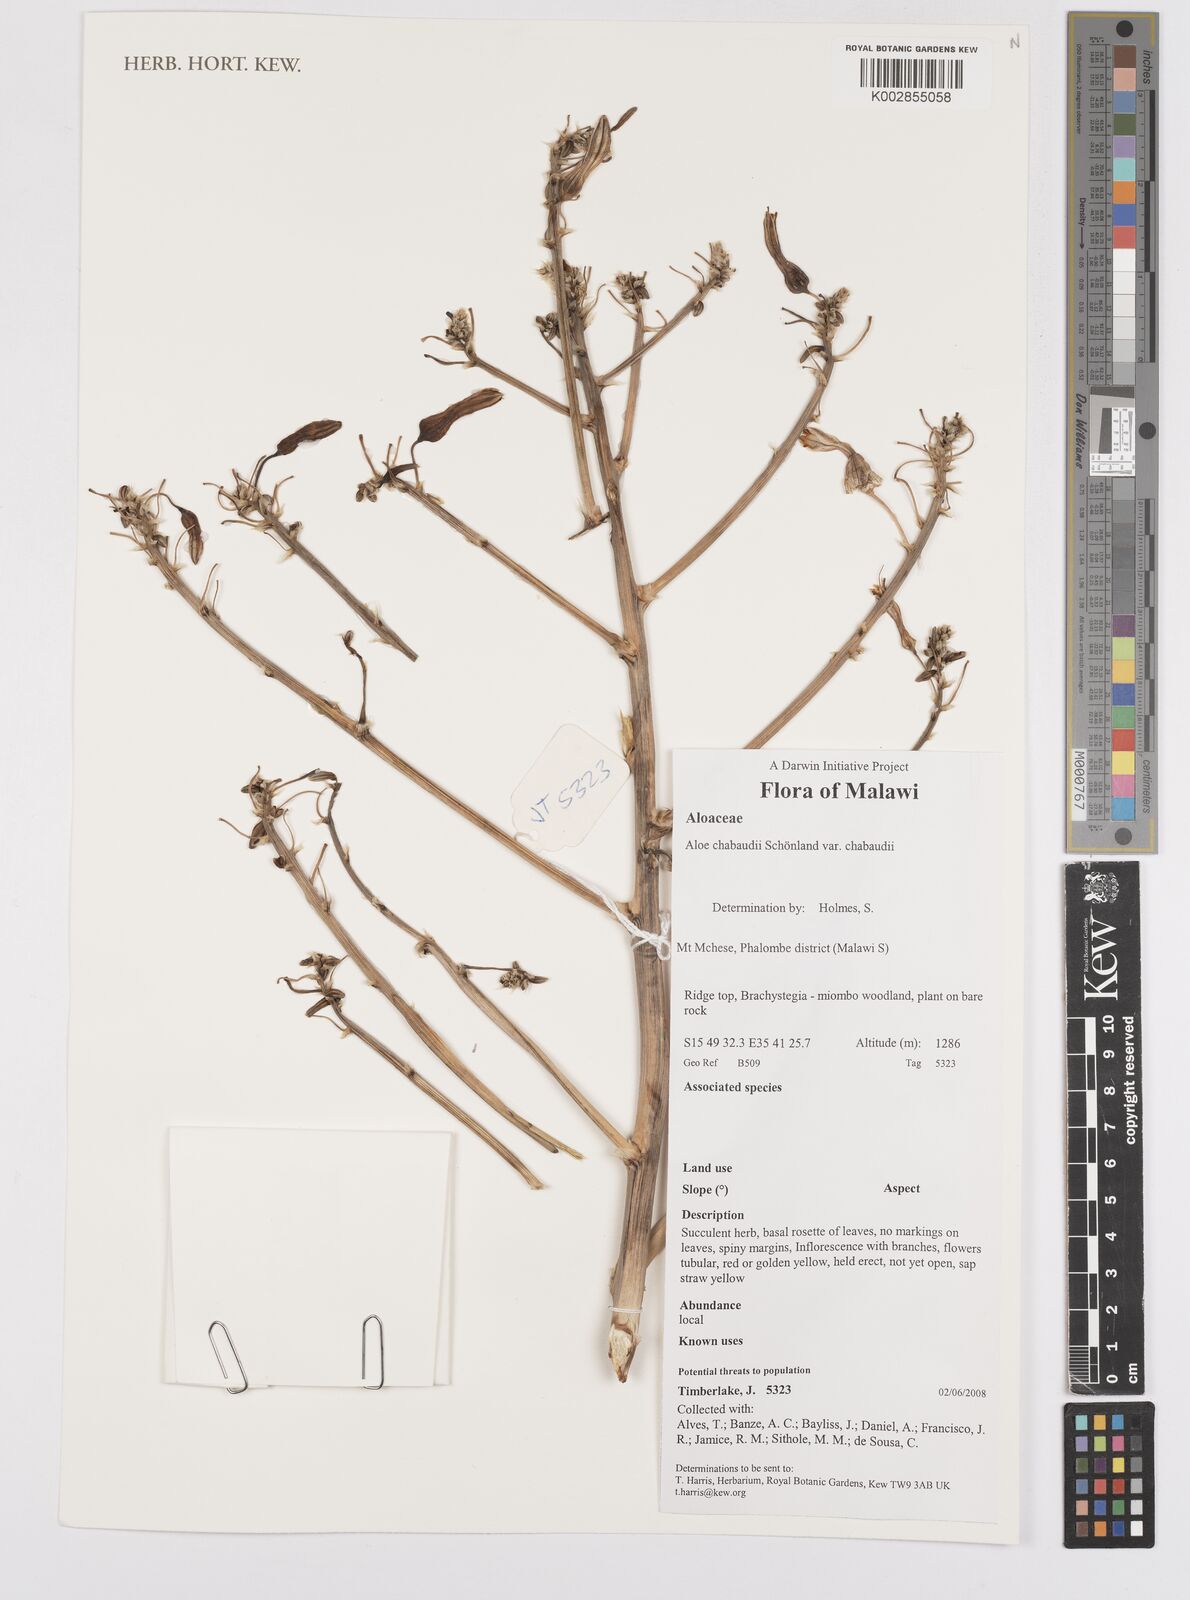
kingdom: Plantae
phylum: Tracheophyta
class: Liliopsida
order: Asparagales
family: Asphodelaceae
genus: Aloe
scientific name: Aloe chabaudii
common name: Chabaud's aloe
